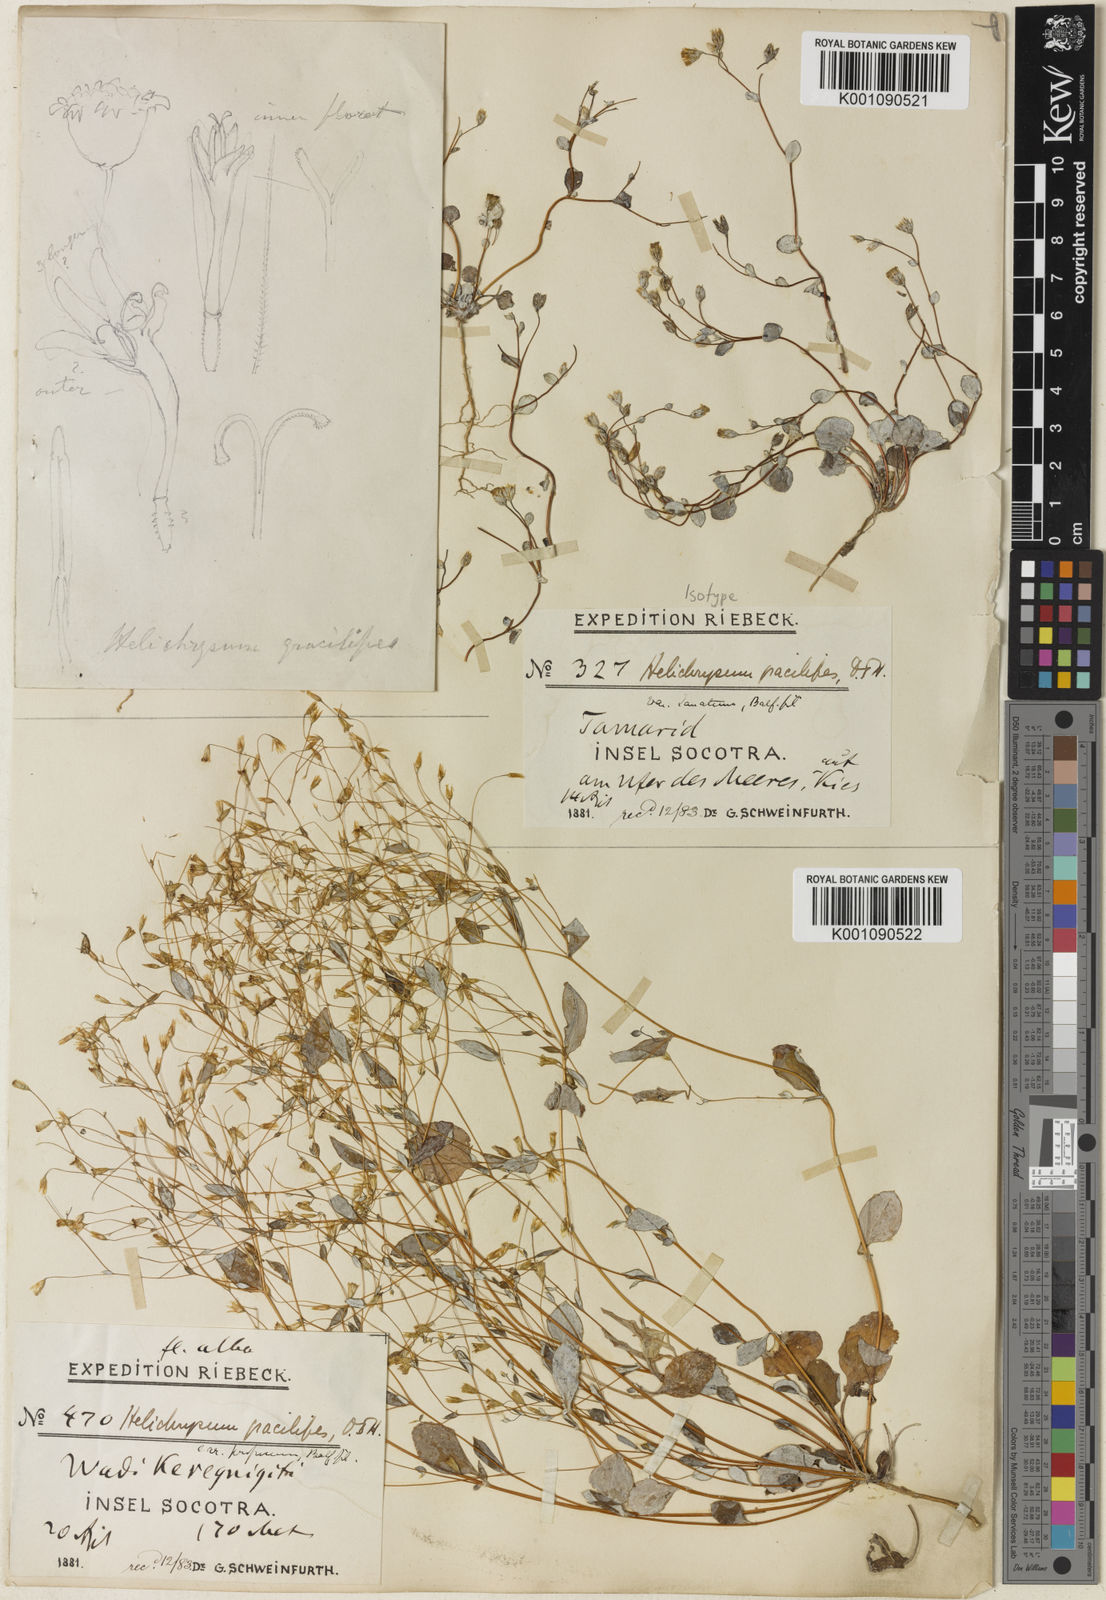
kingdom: Plantae
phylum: Tracheophyta
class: Magnoliopsida
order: Asterales
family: Asteraceae
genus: Libinhania
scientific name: Libinhania gracilipes
